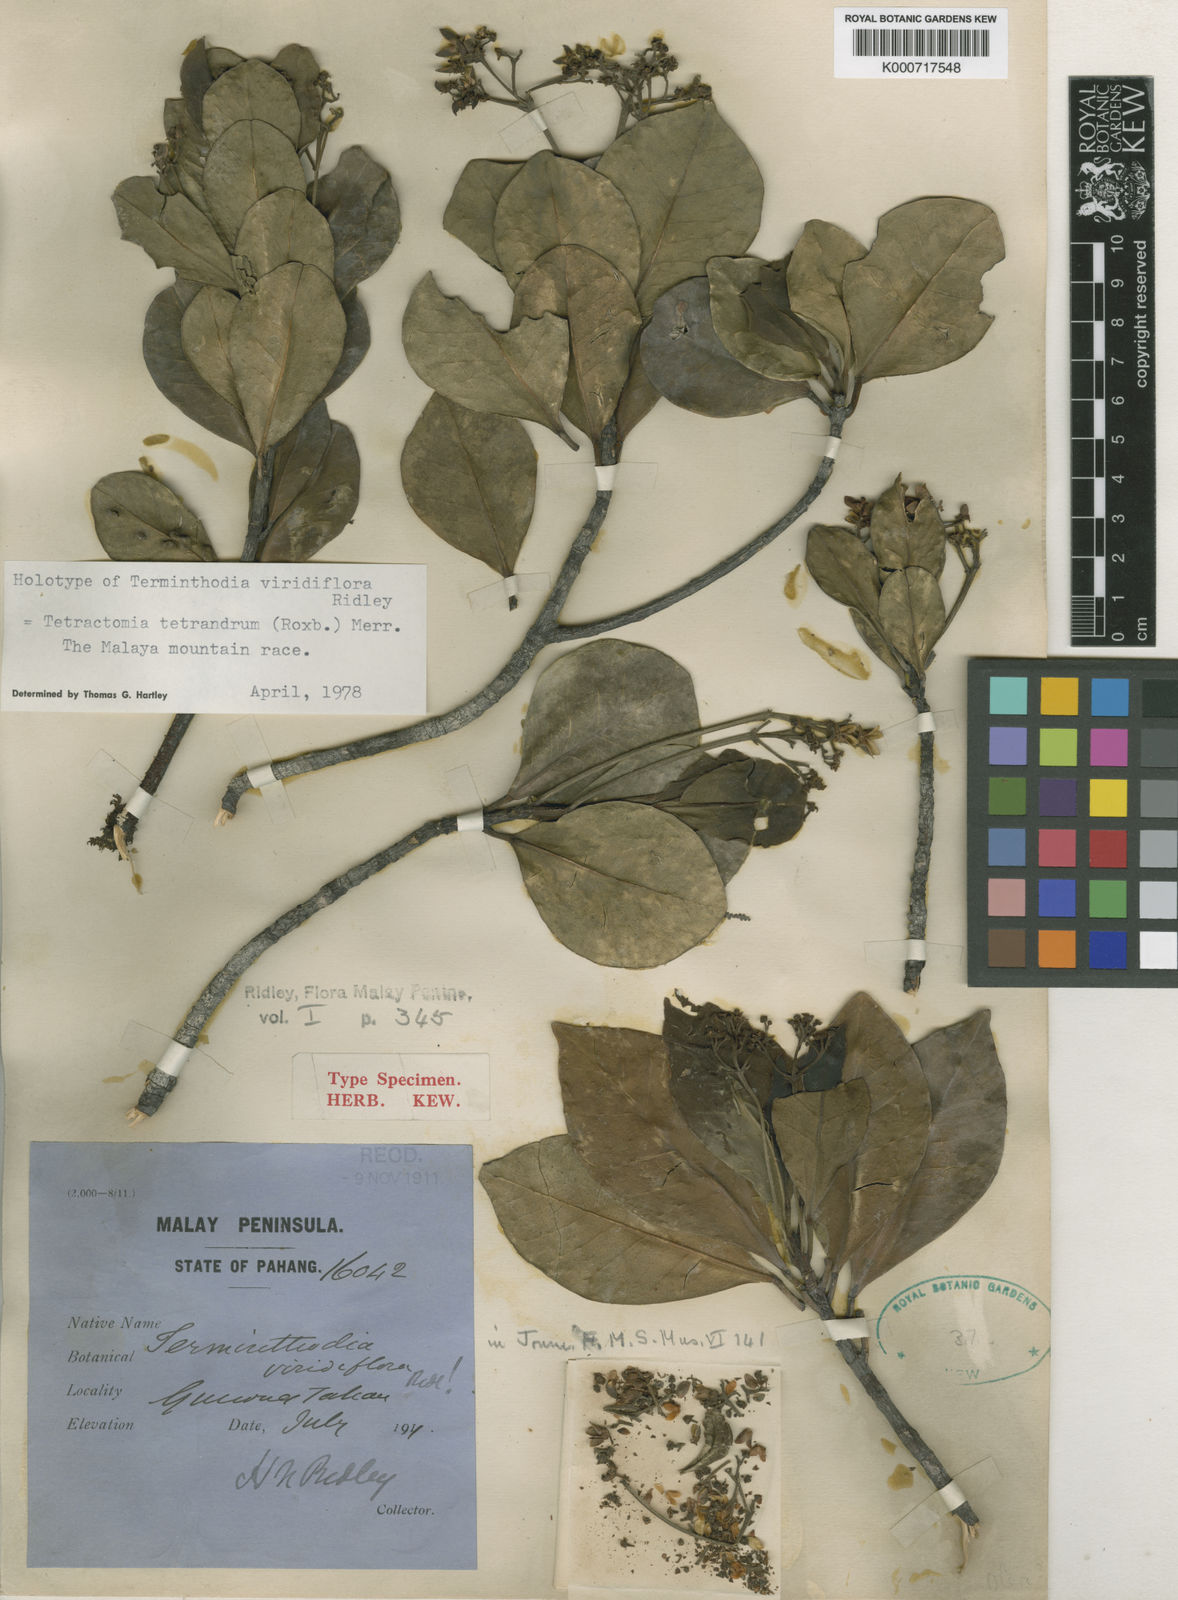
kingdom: Plantae
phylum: Tracheophyta
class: Magnoliopsida
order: Sapindales
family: Rutaceae
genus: Tetractomia
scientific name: Tetractomia tetrandra
